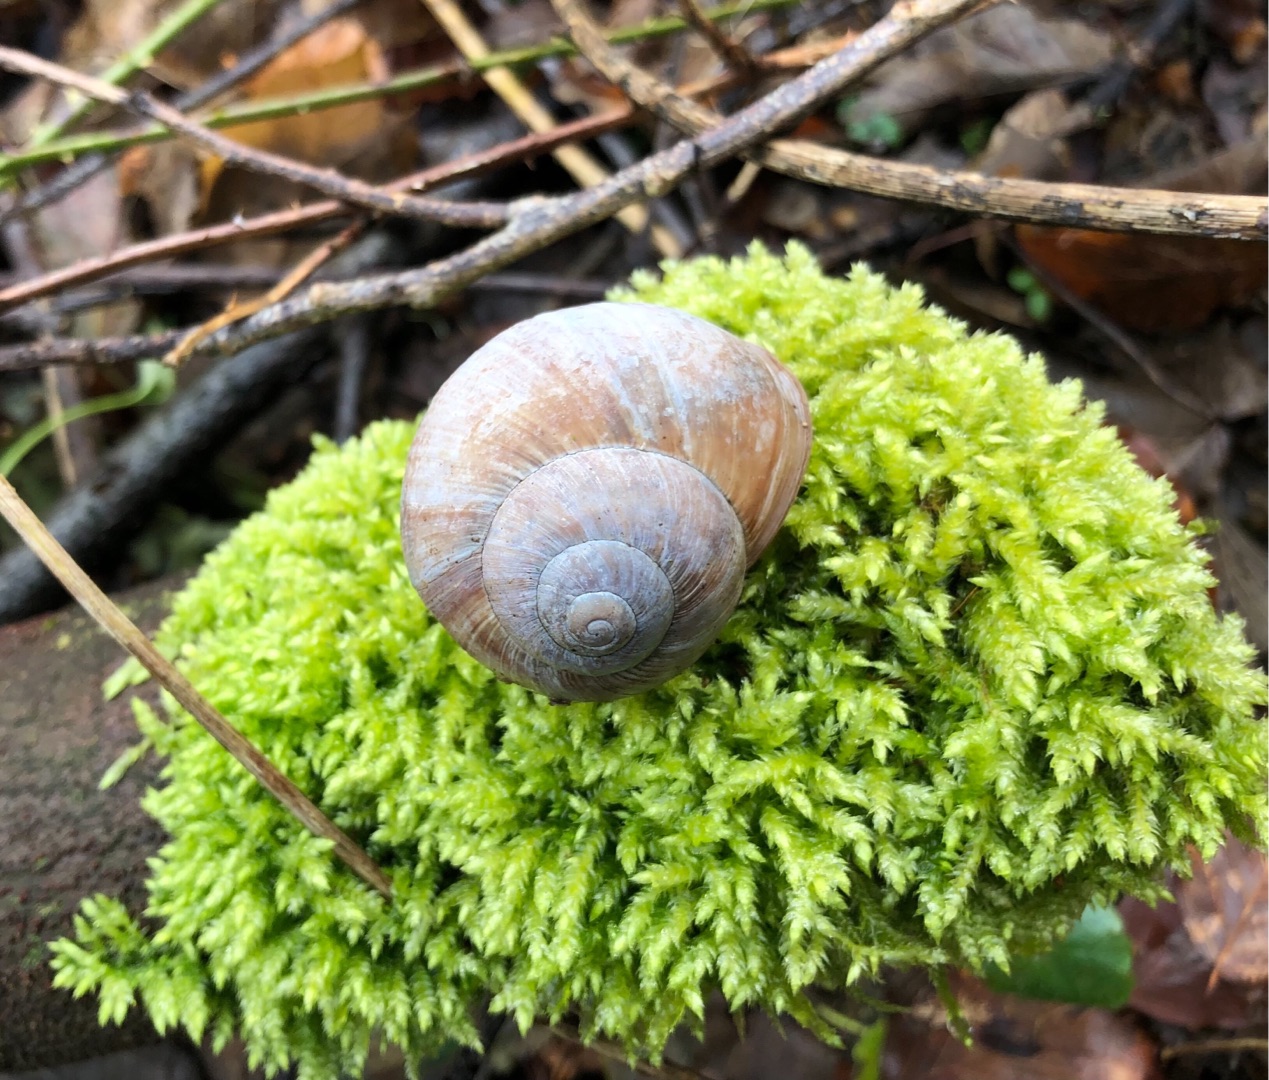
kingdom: Animalia
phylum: Mollusca
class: Gastropoda
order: Stylommatophora
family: Helicidae
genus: Helix
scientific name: Helix pomatia
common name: Vinbjergsnegl
